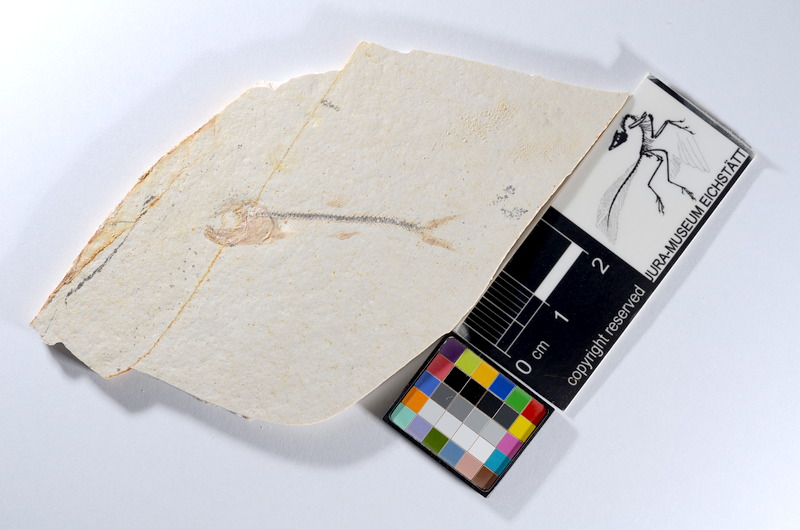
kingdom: Animalia
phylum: Chordata
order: Salmoniformes
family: Orthogonikleithridae
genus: Orthogonikleithrus
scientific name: Orthogonikleithrus hoelli
